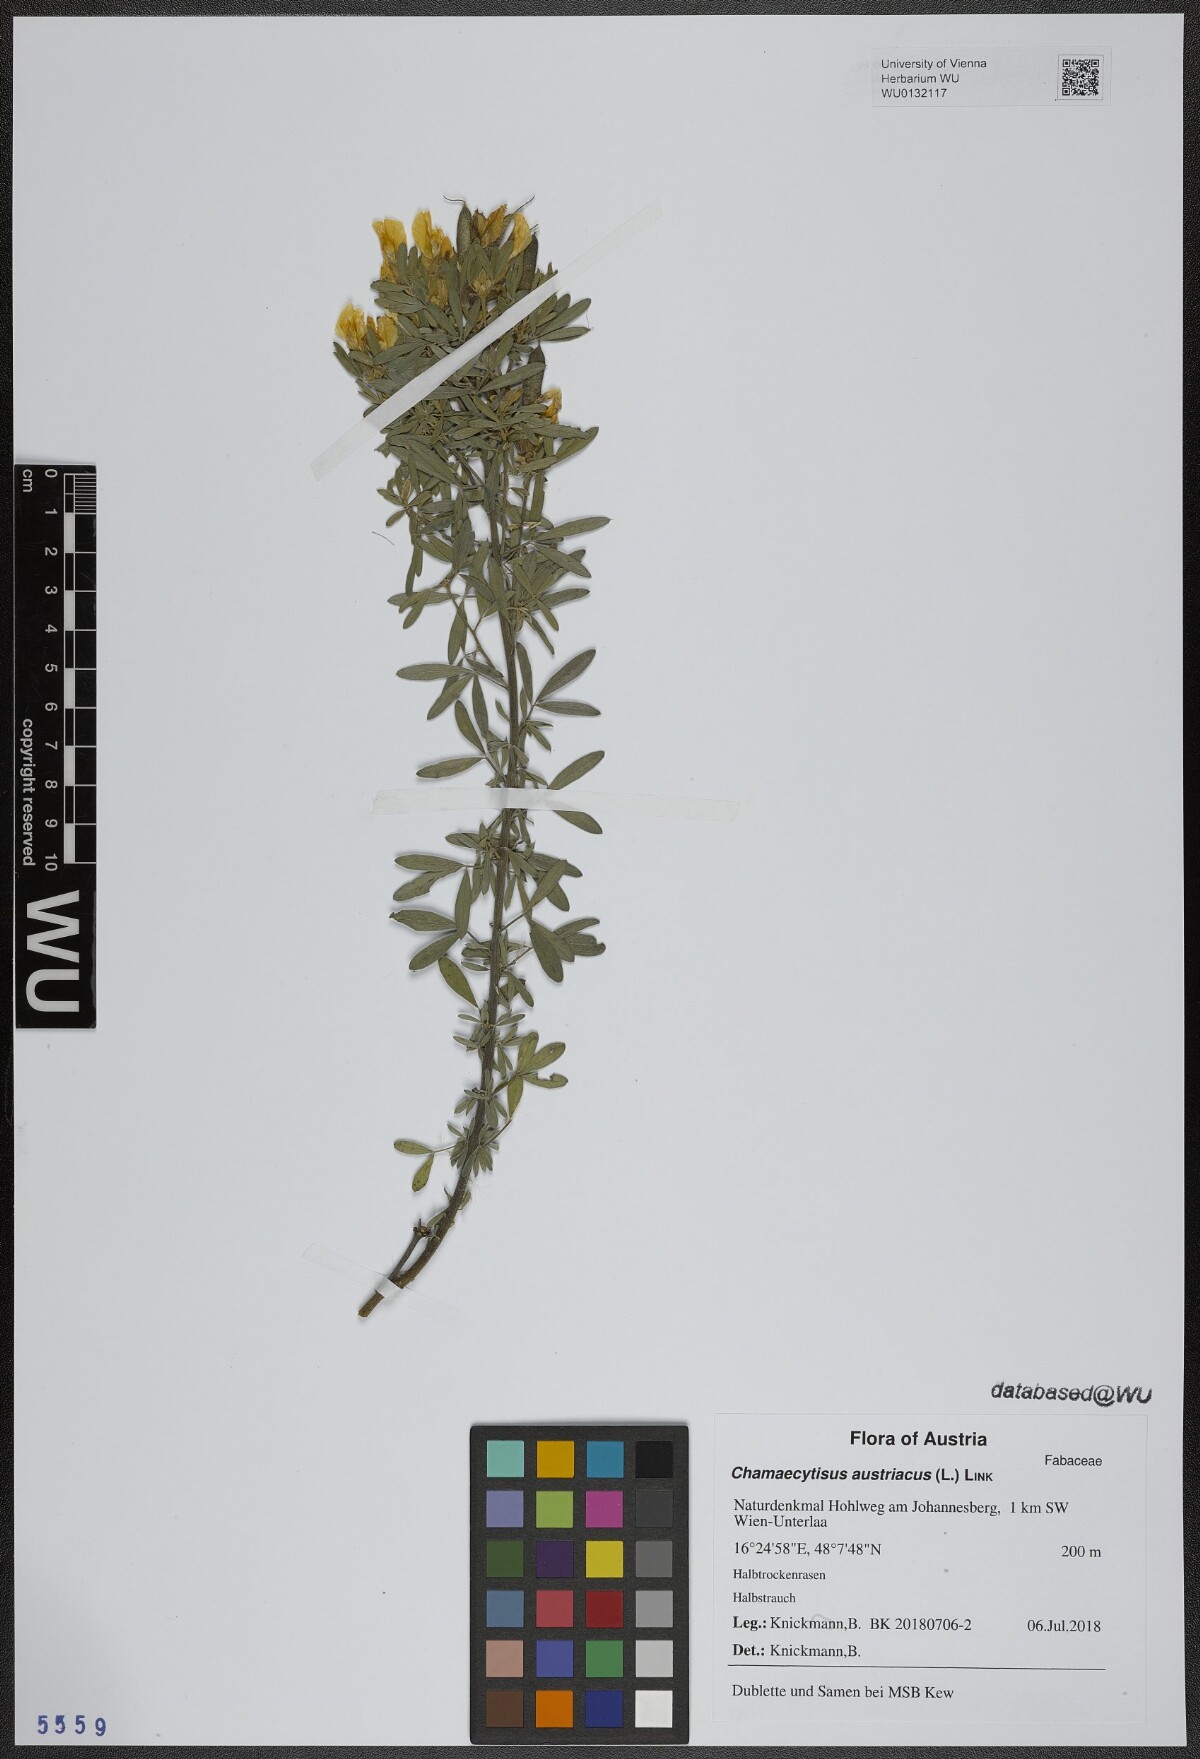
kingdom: Plantae
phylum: Tracheophyta
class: Magnoliopsida
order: Fabales
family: Fabaceae
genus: Chamaecytisus
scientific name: Chamaecytisus austriacus
